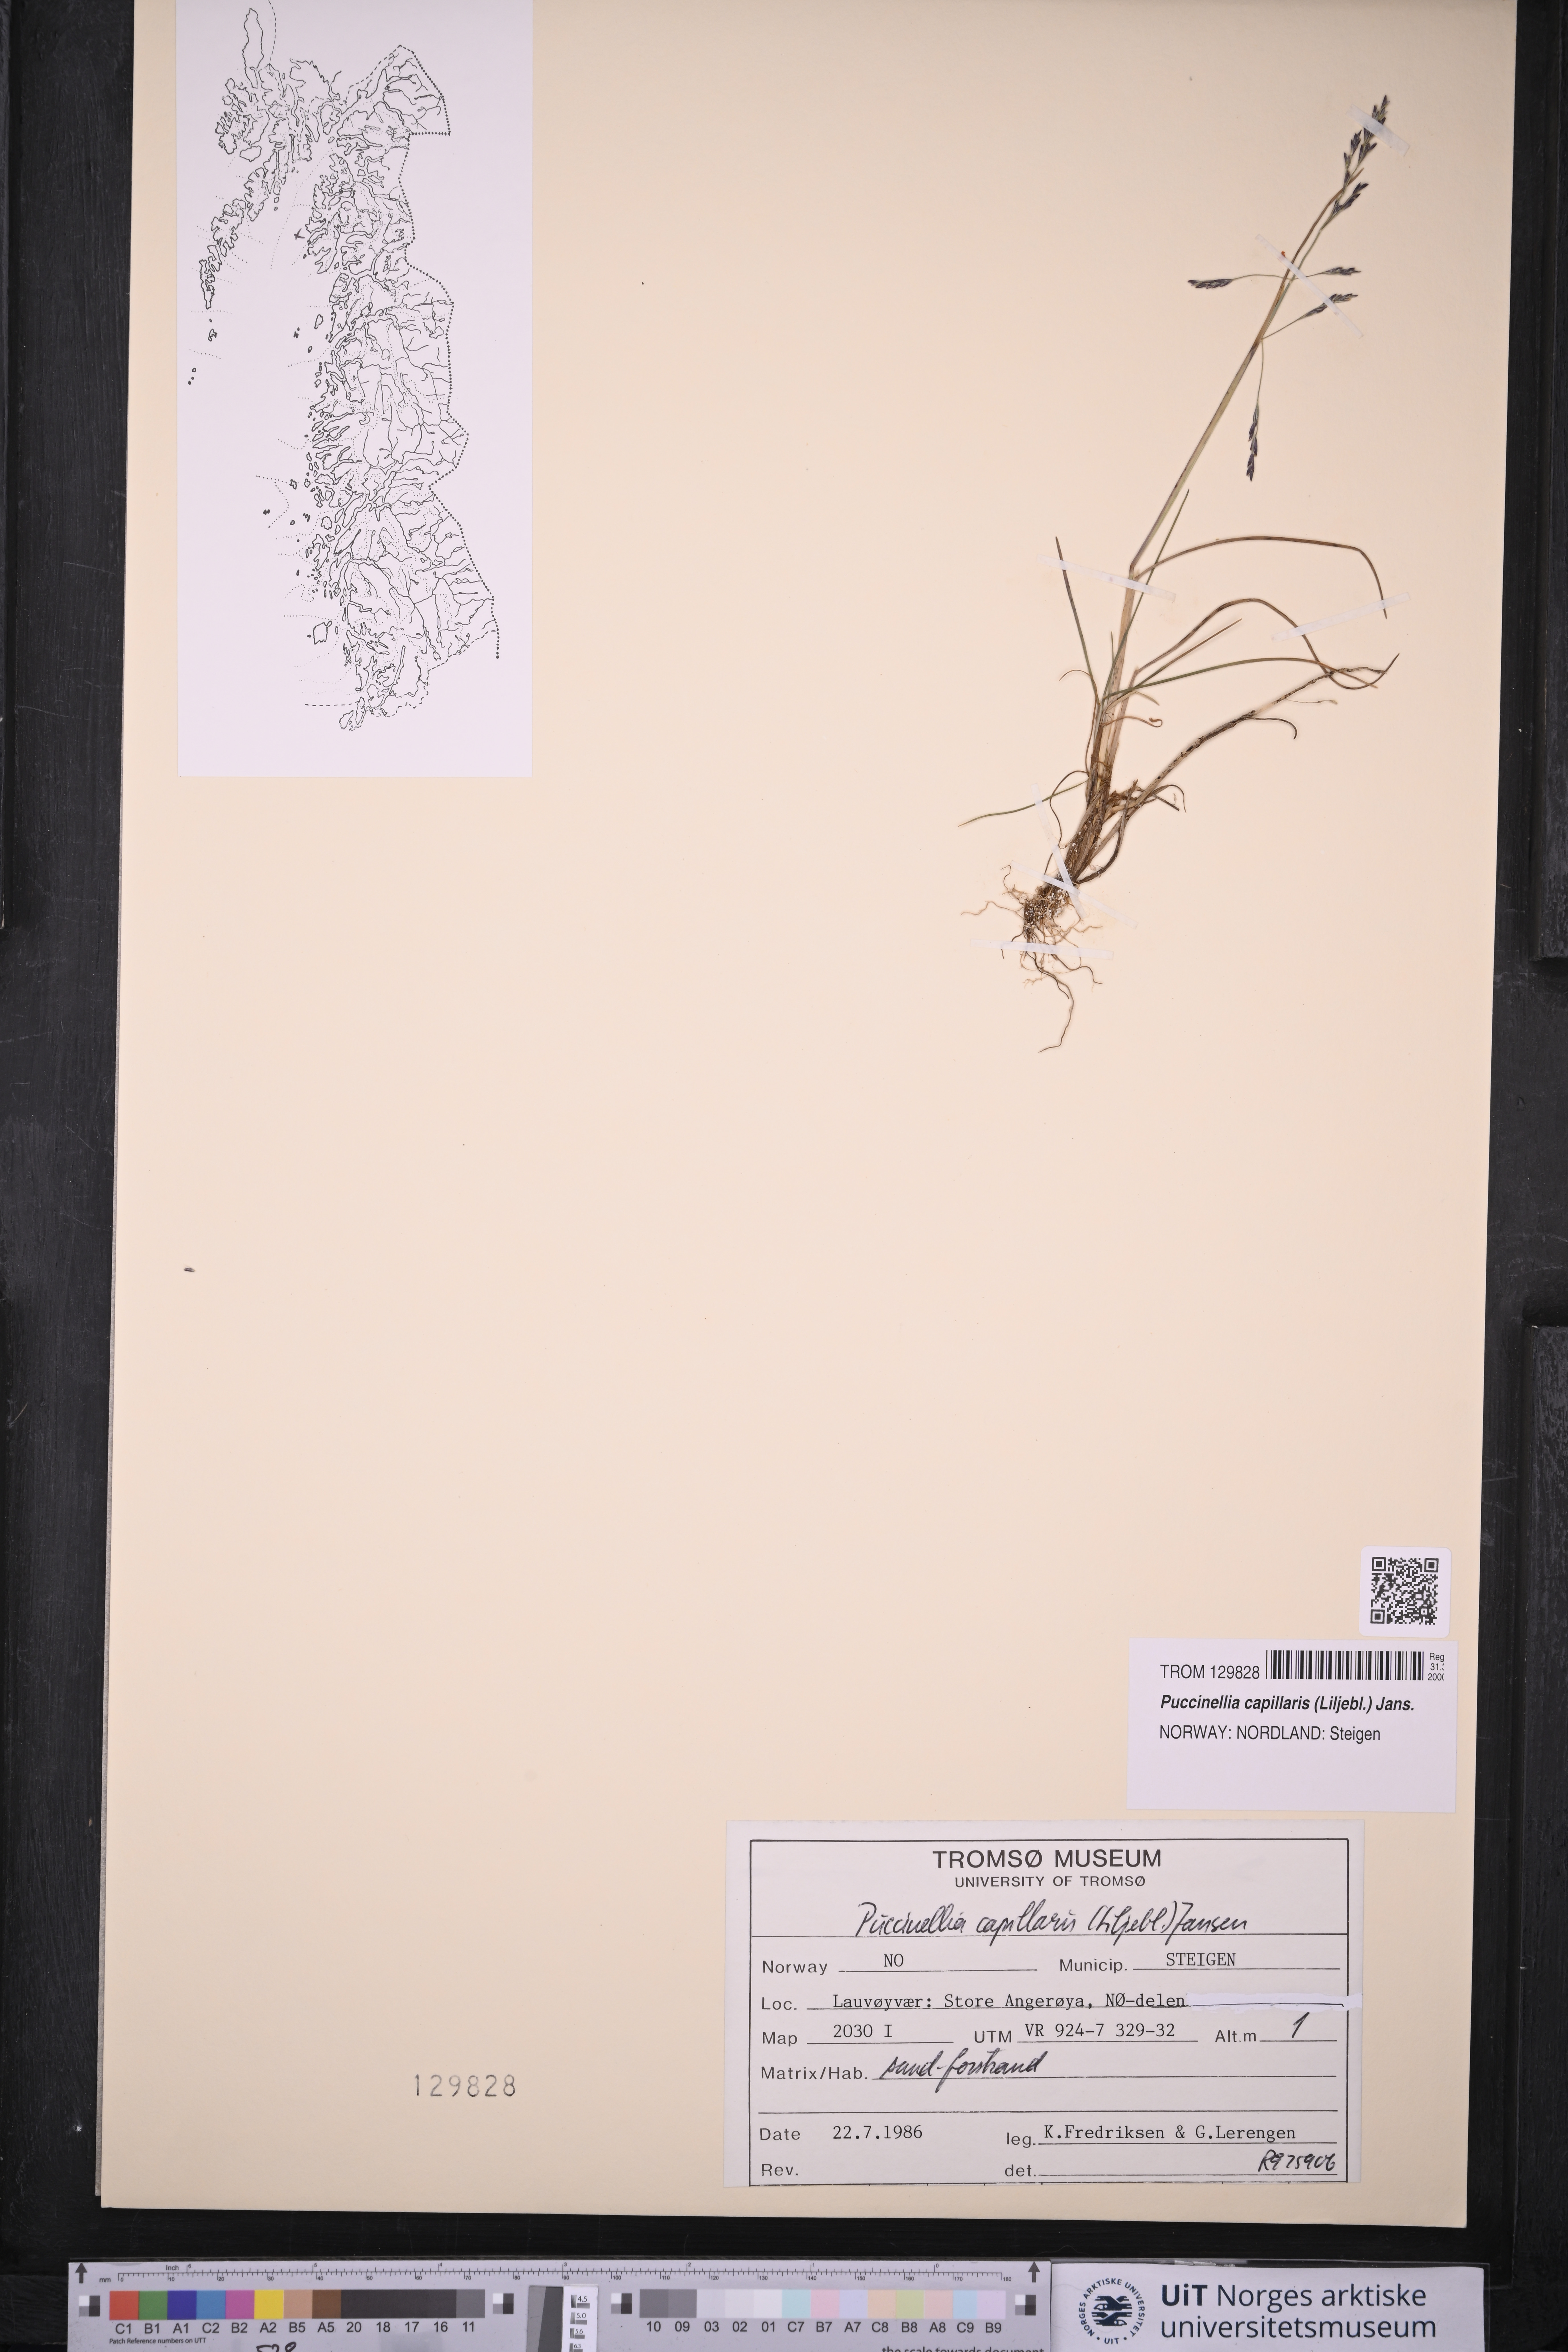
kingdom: Plantae
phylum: Tracheophyta
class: Liliopsida
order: Poales
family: Poaceae
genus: Puccinellia
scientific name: Puccinellia distans
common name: Weeping alkaligrass
